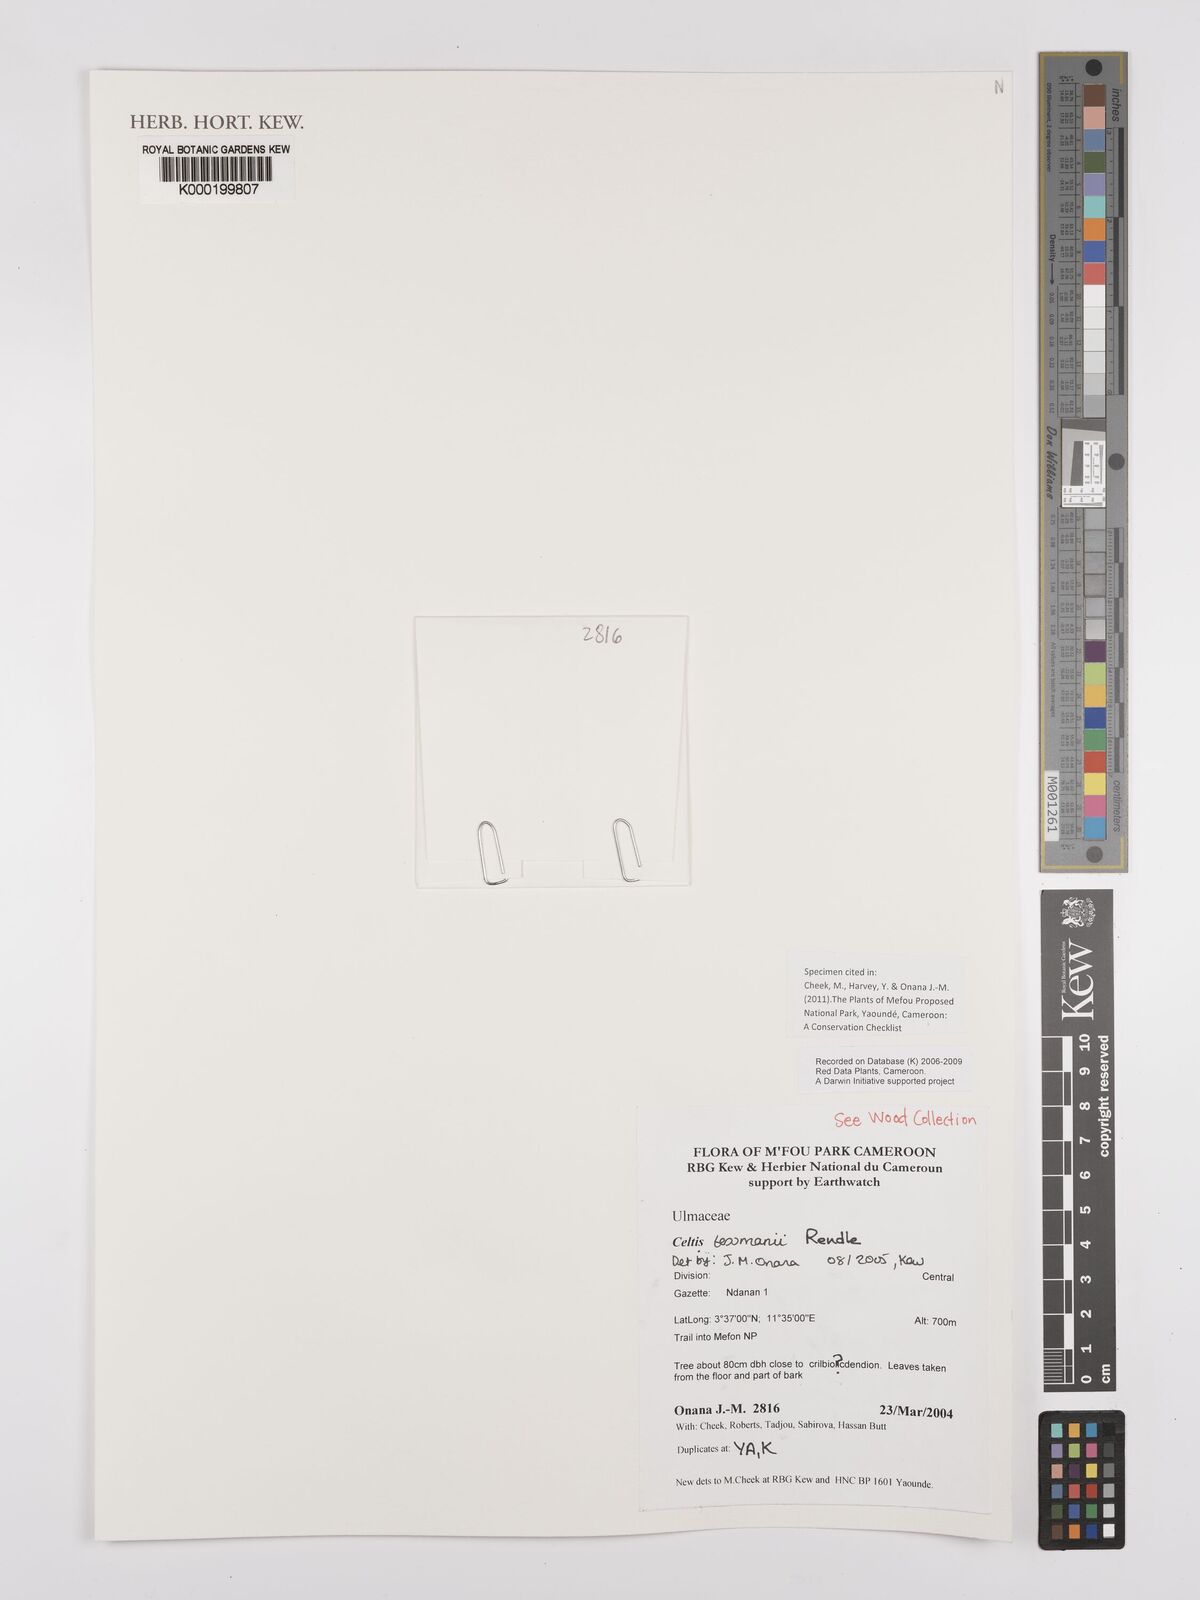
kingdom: Plantae
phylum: Tracheophyta
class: Magnoliopsida
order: Rosales
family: Cannabaceae
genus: Celtis
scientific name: Celtis tessmannii
